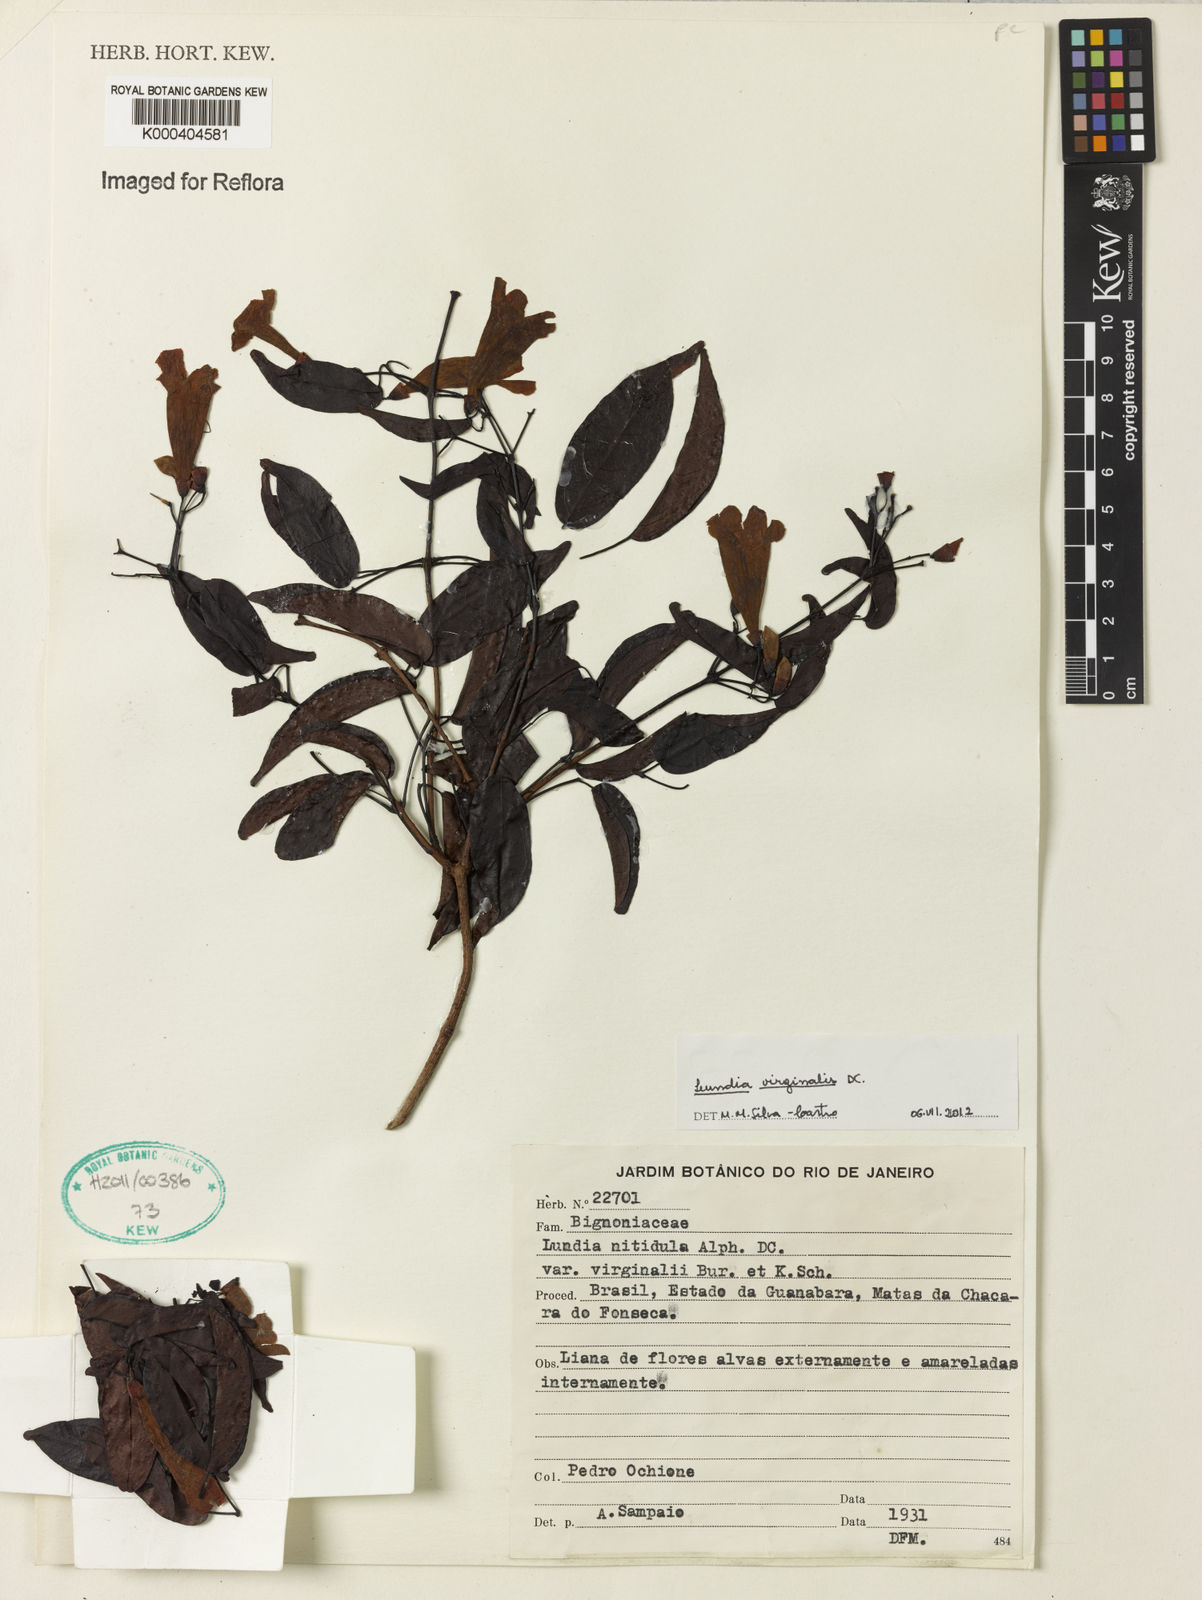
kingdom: Plantae
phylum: Tracheophyta
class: Magnoliopsida
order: Lamiales
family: Bignoniaceae
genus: Lundia
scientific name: Lundia virginalis
